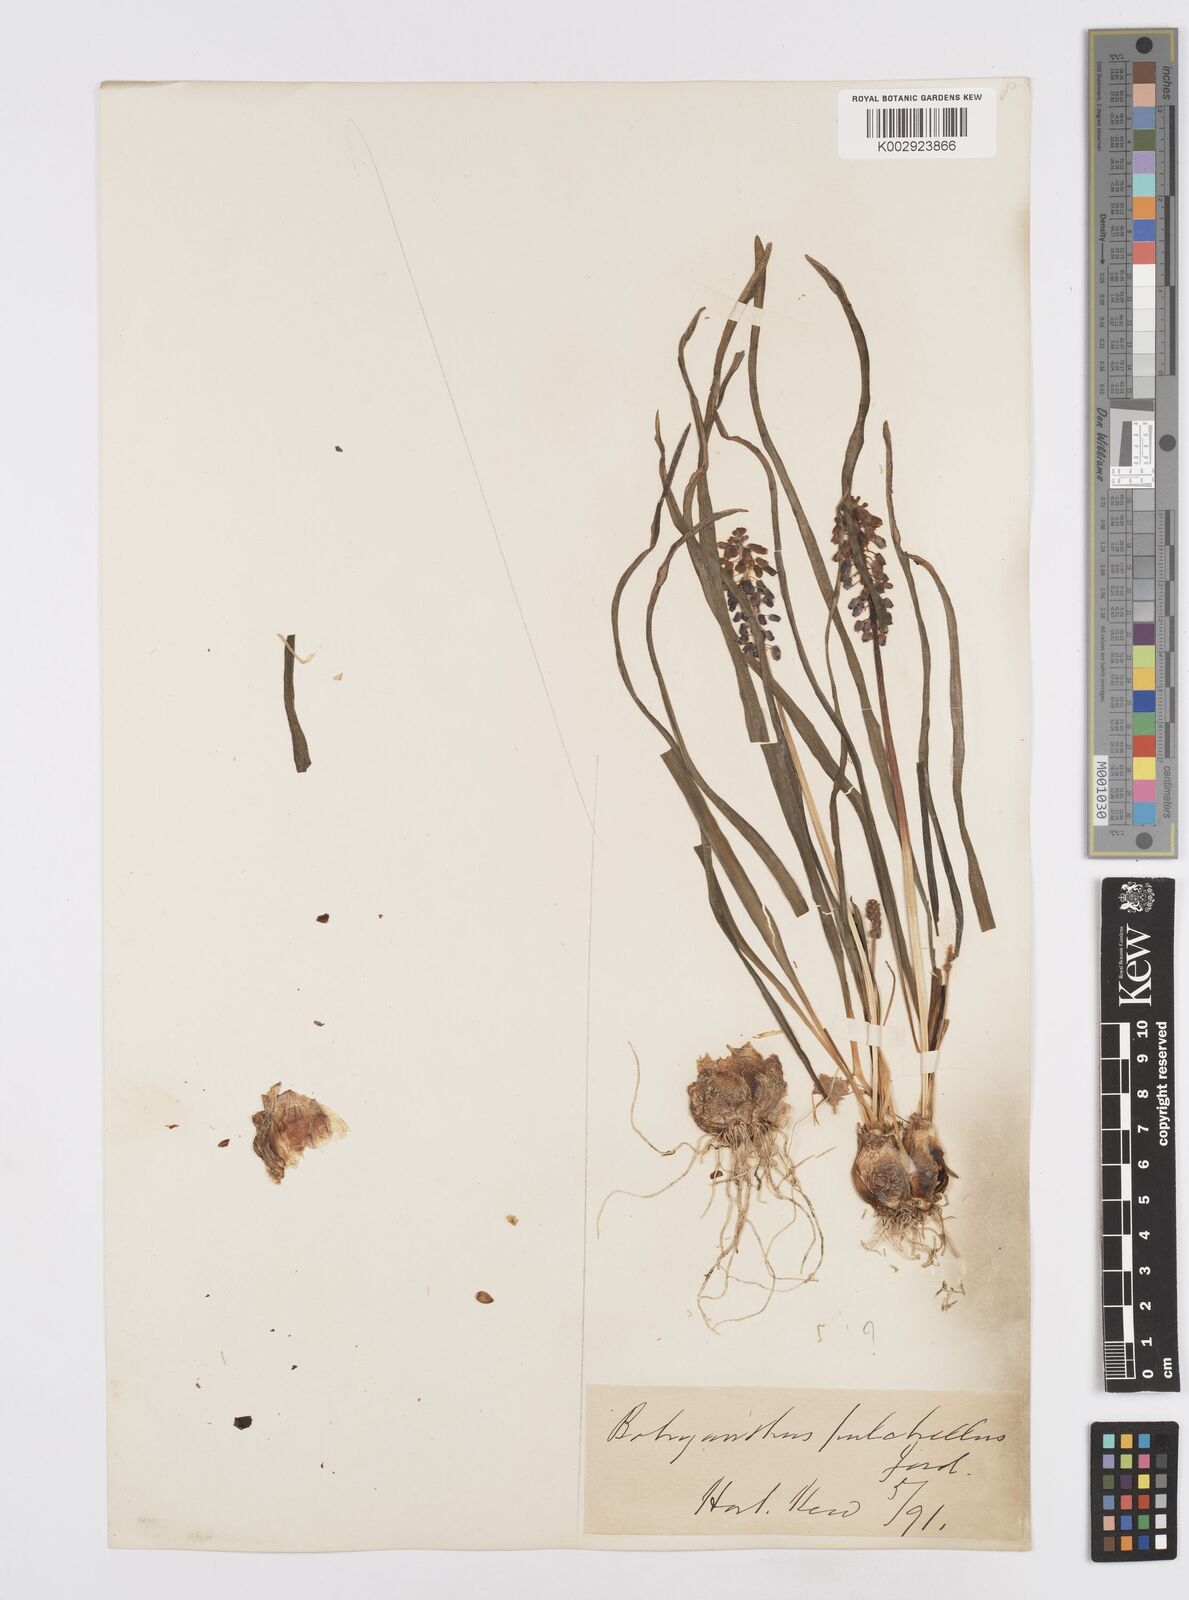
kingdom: Plantae
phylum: Tracheophyta
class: Liliopsida
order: Asparagales
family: Asparagaceae
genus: Muscari
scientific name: Muscari
